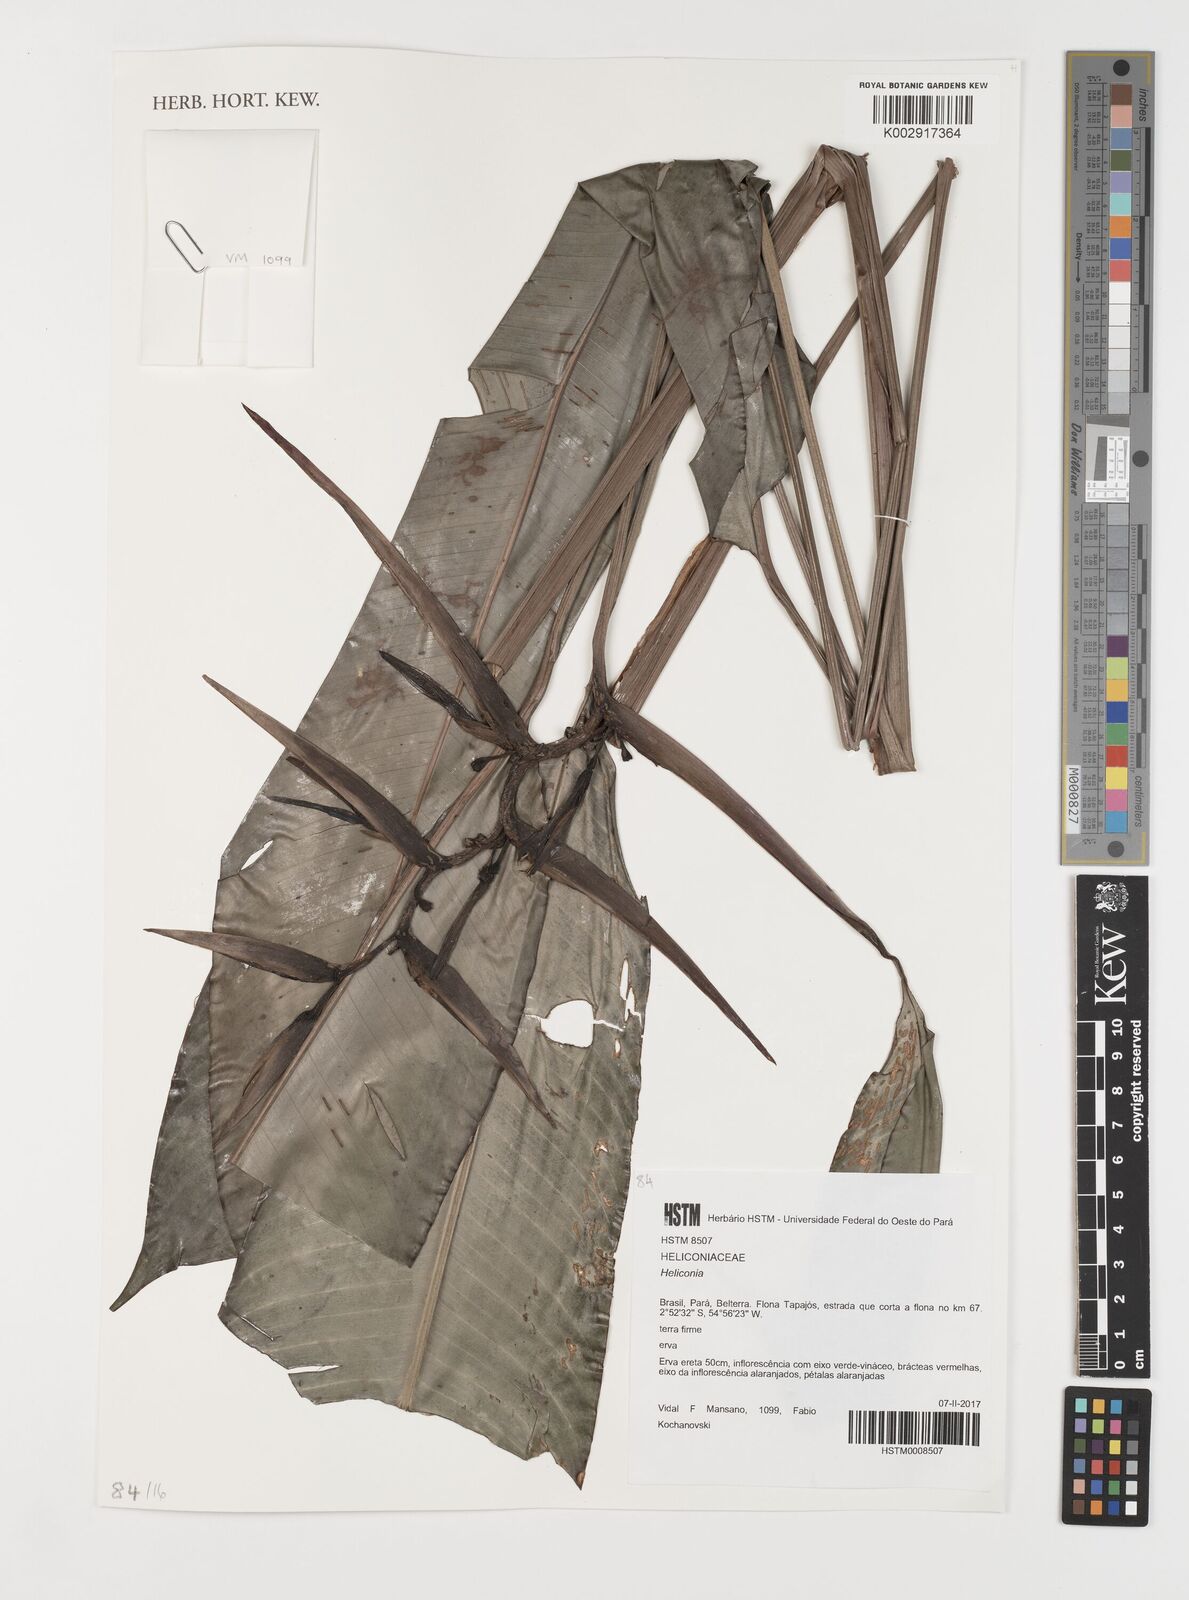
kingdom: Plantae
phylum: Tracheophyta
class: Liliopsida
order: Zingiberales
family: Heliconiaceae
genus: Heliconia
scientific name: Heliconia
